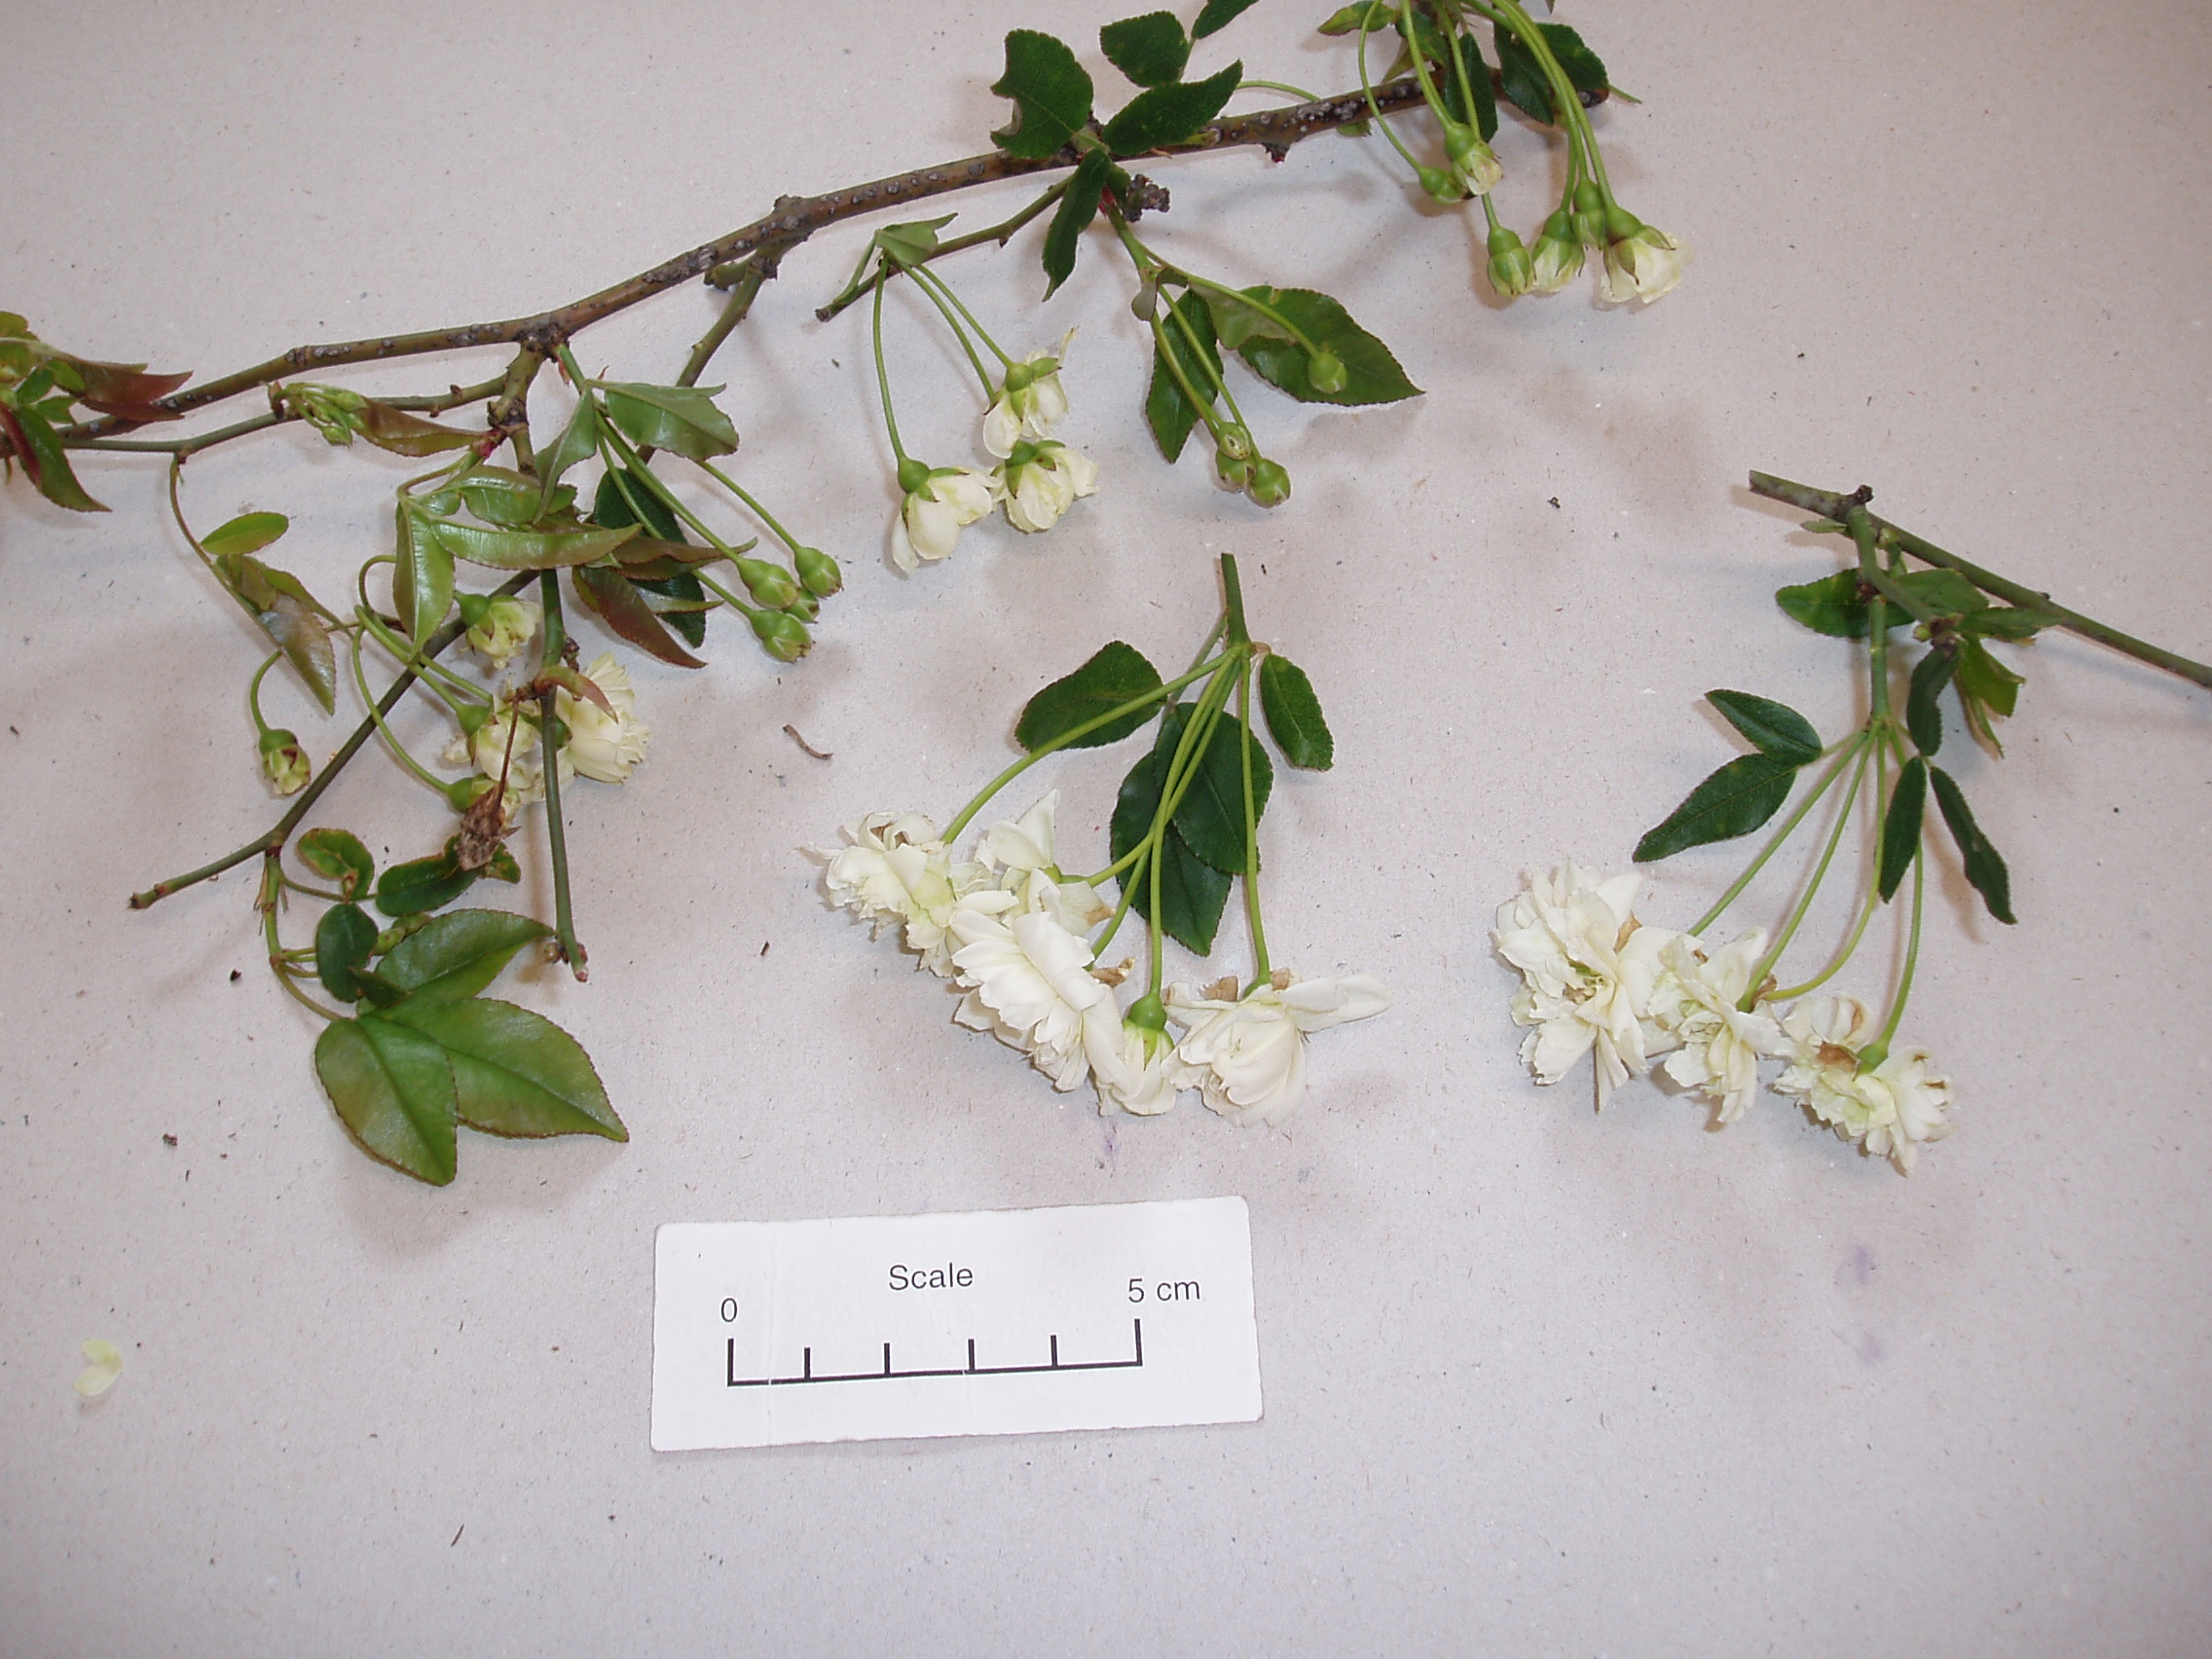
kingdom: Plantae
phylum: Tracheophyta
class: Magnoliopsida
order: Rosales
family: Rosaceae
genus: Rosa
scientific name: Rosa banksiae
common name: Banksian rose
